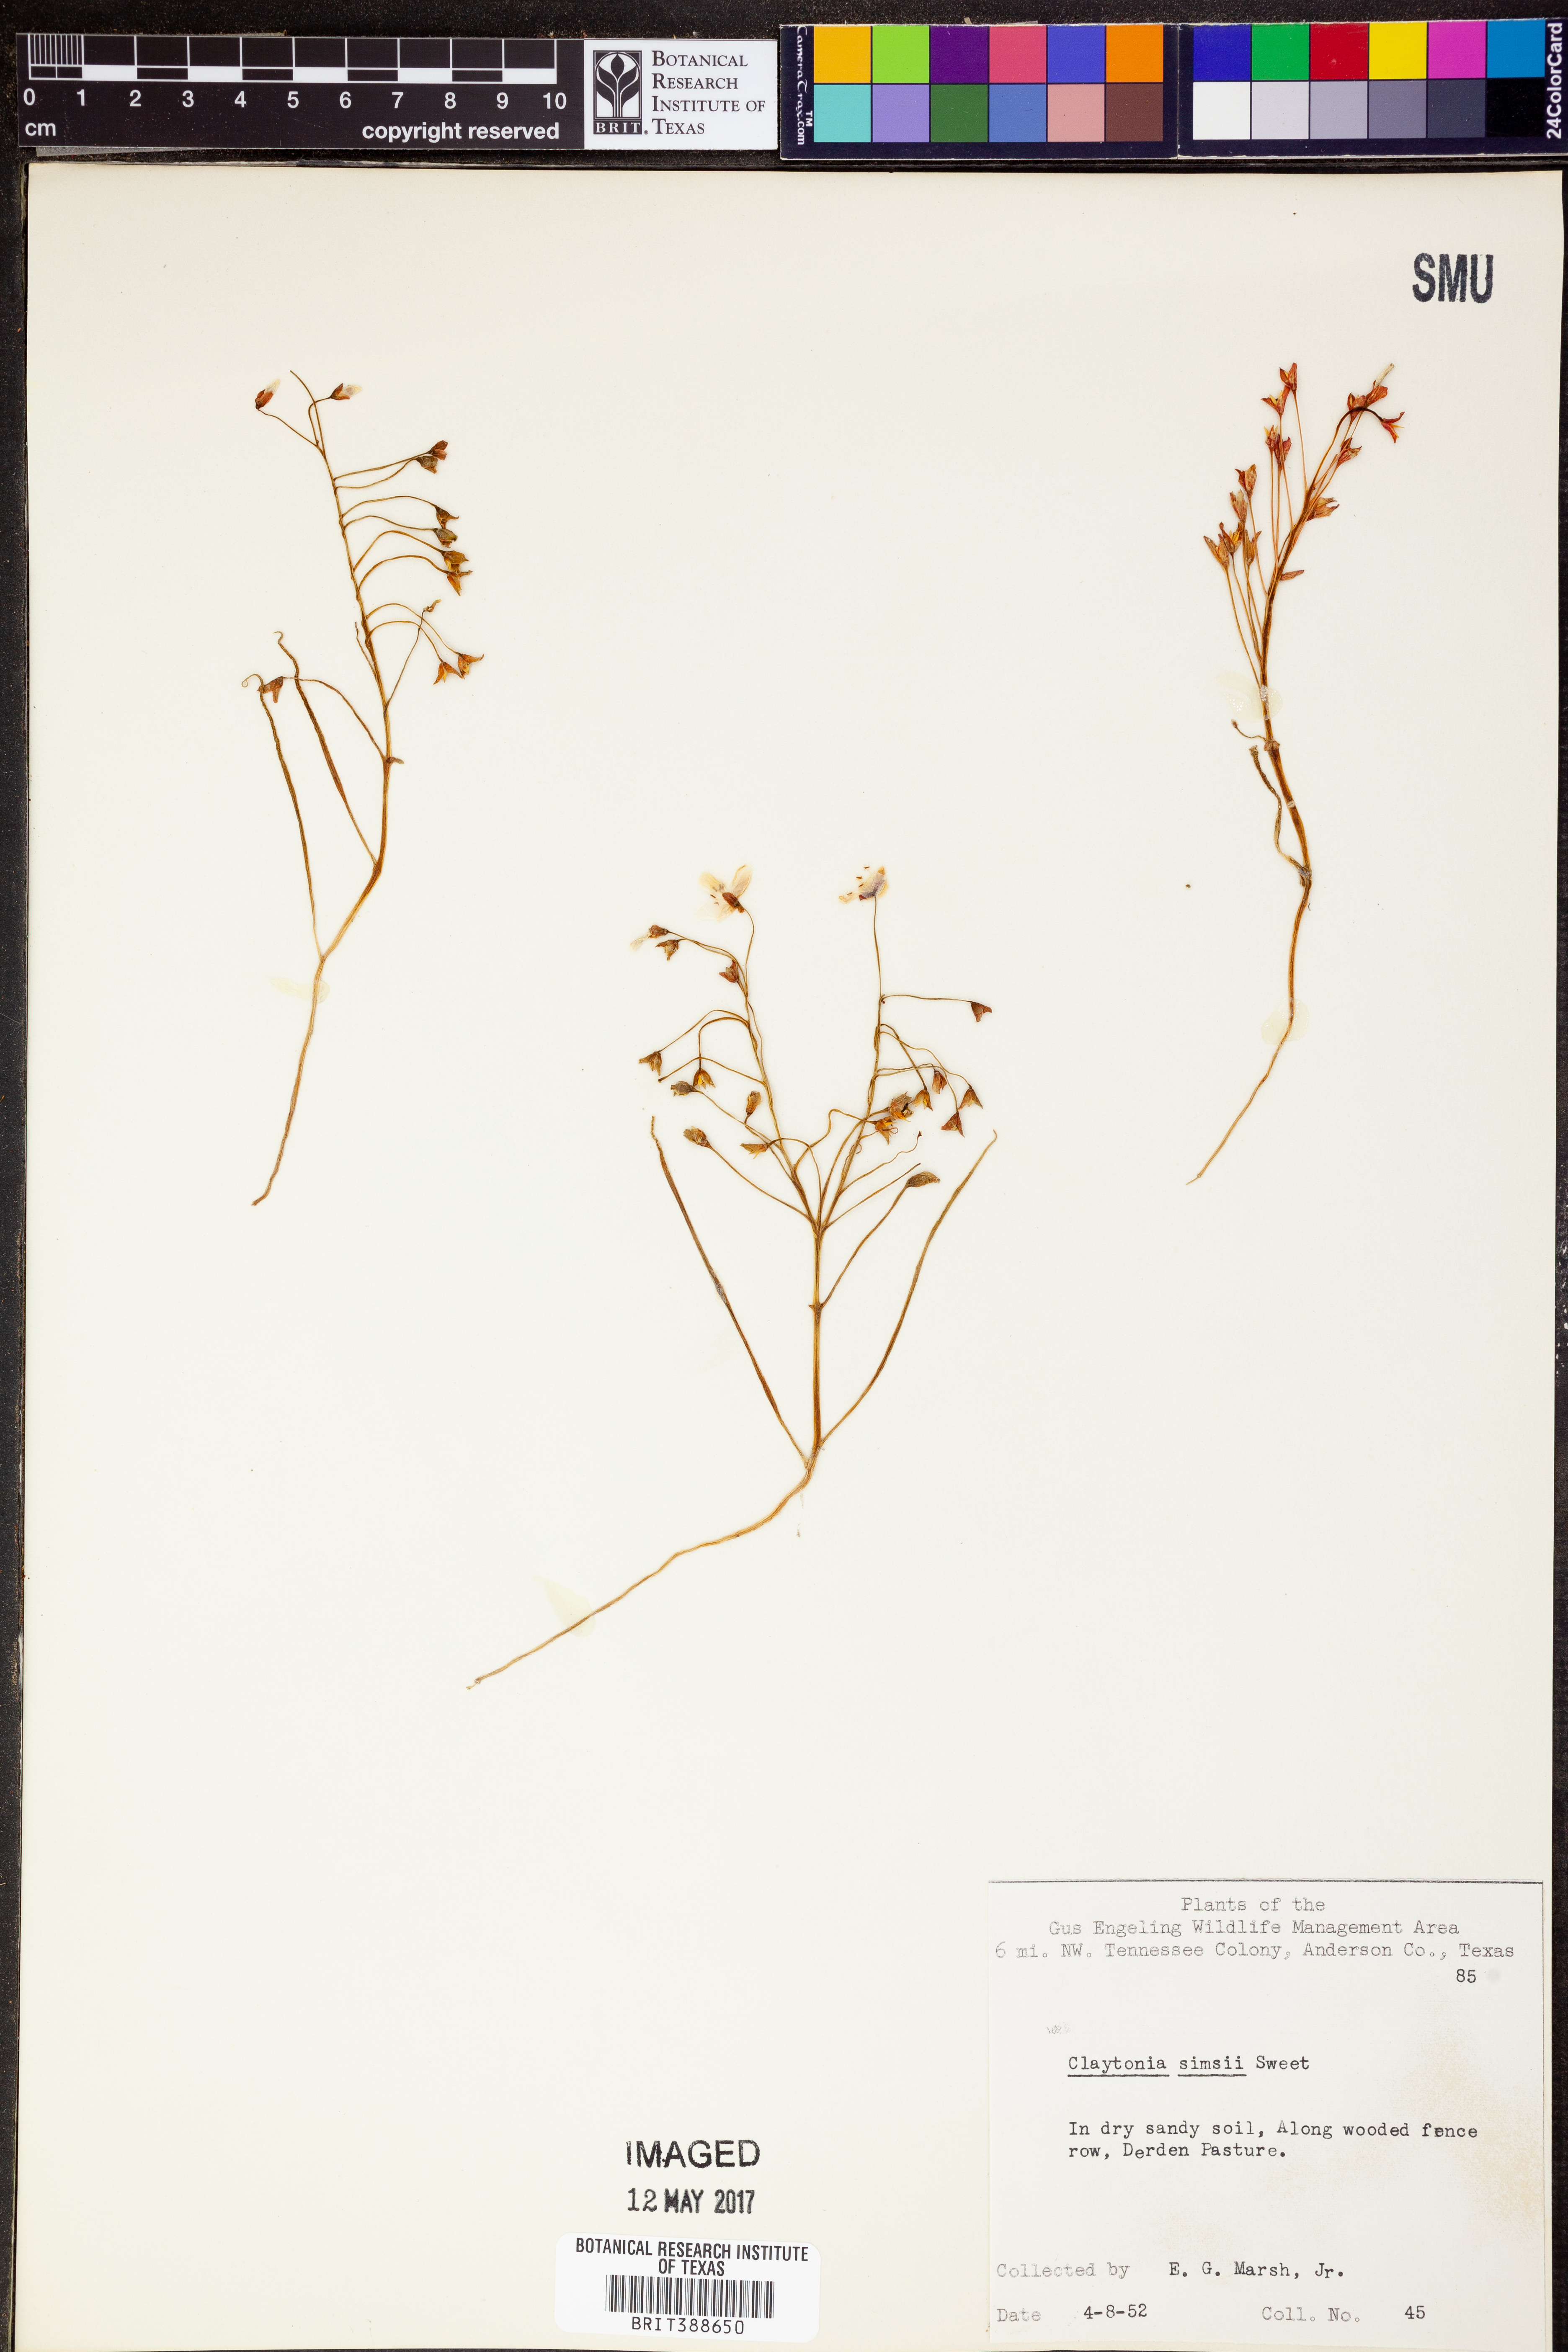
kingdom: Plantae
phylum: Tracheophyta
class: Magnoliopsida
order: Caryophyllales
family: Montiaceae
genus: Claytonia
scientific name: Claytonia virginica
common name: Virginia springbeauty
